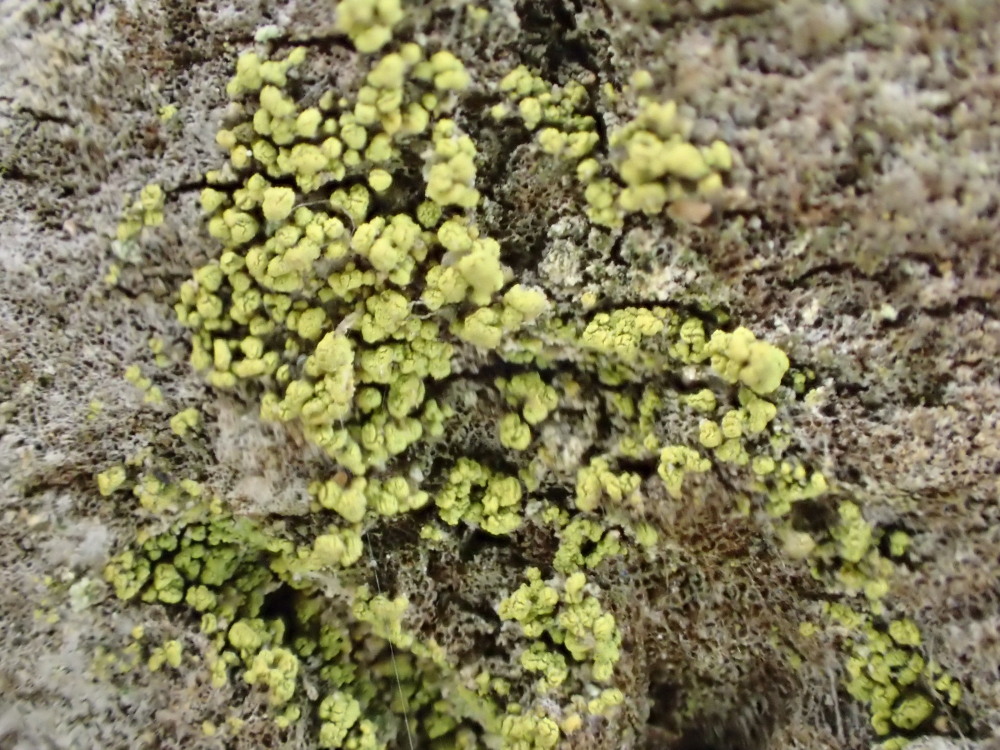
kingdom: Fungi
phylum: Ascomycota
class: Lecanoromycetes
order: Caliciales
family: Caliciaceae
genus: Calicium
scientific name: Calicium viride
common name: gulgrøn nålelav
